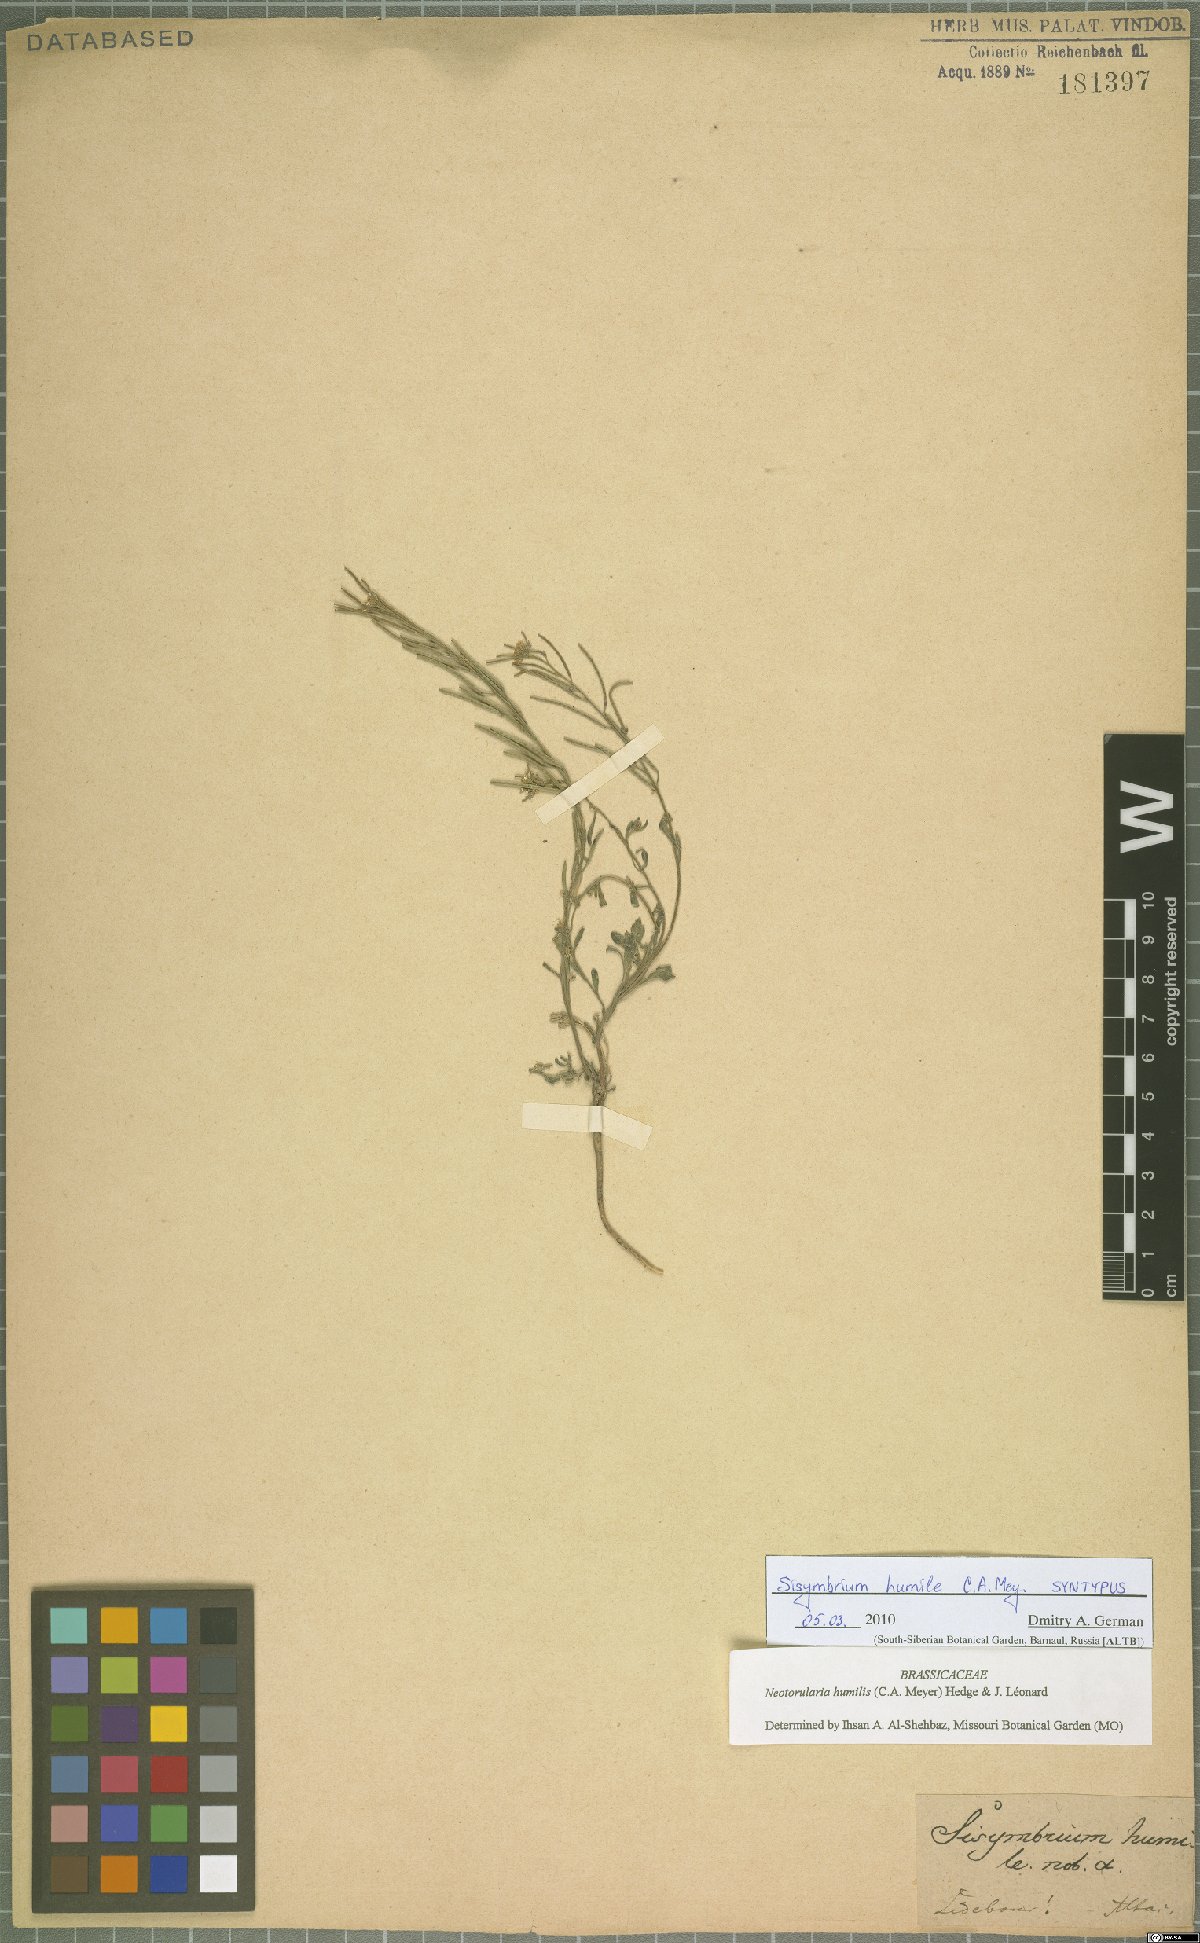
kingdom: Plantae
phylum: Tracheophyta
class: Magnoliopsida
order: Brassicales
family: Brassicaceae
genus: Braya
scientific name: Braya humilis
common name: Alpine northern rockcress
